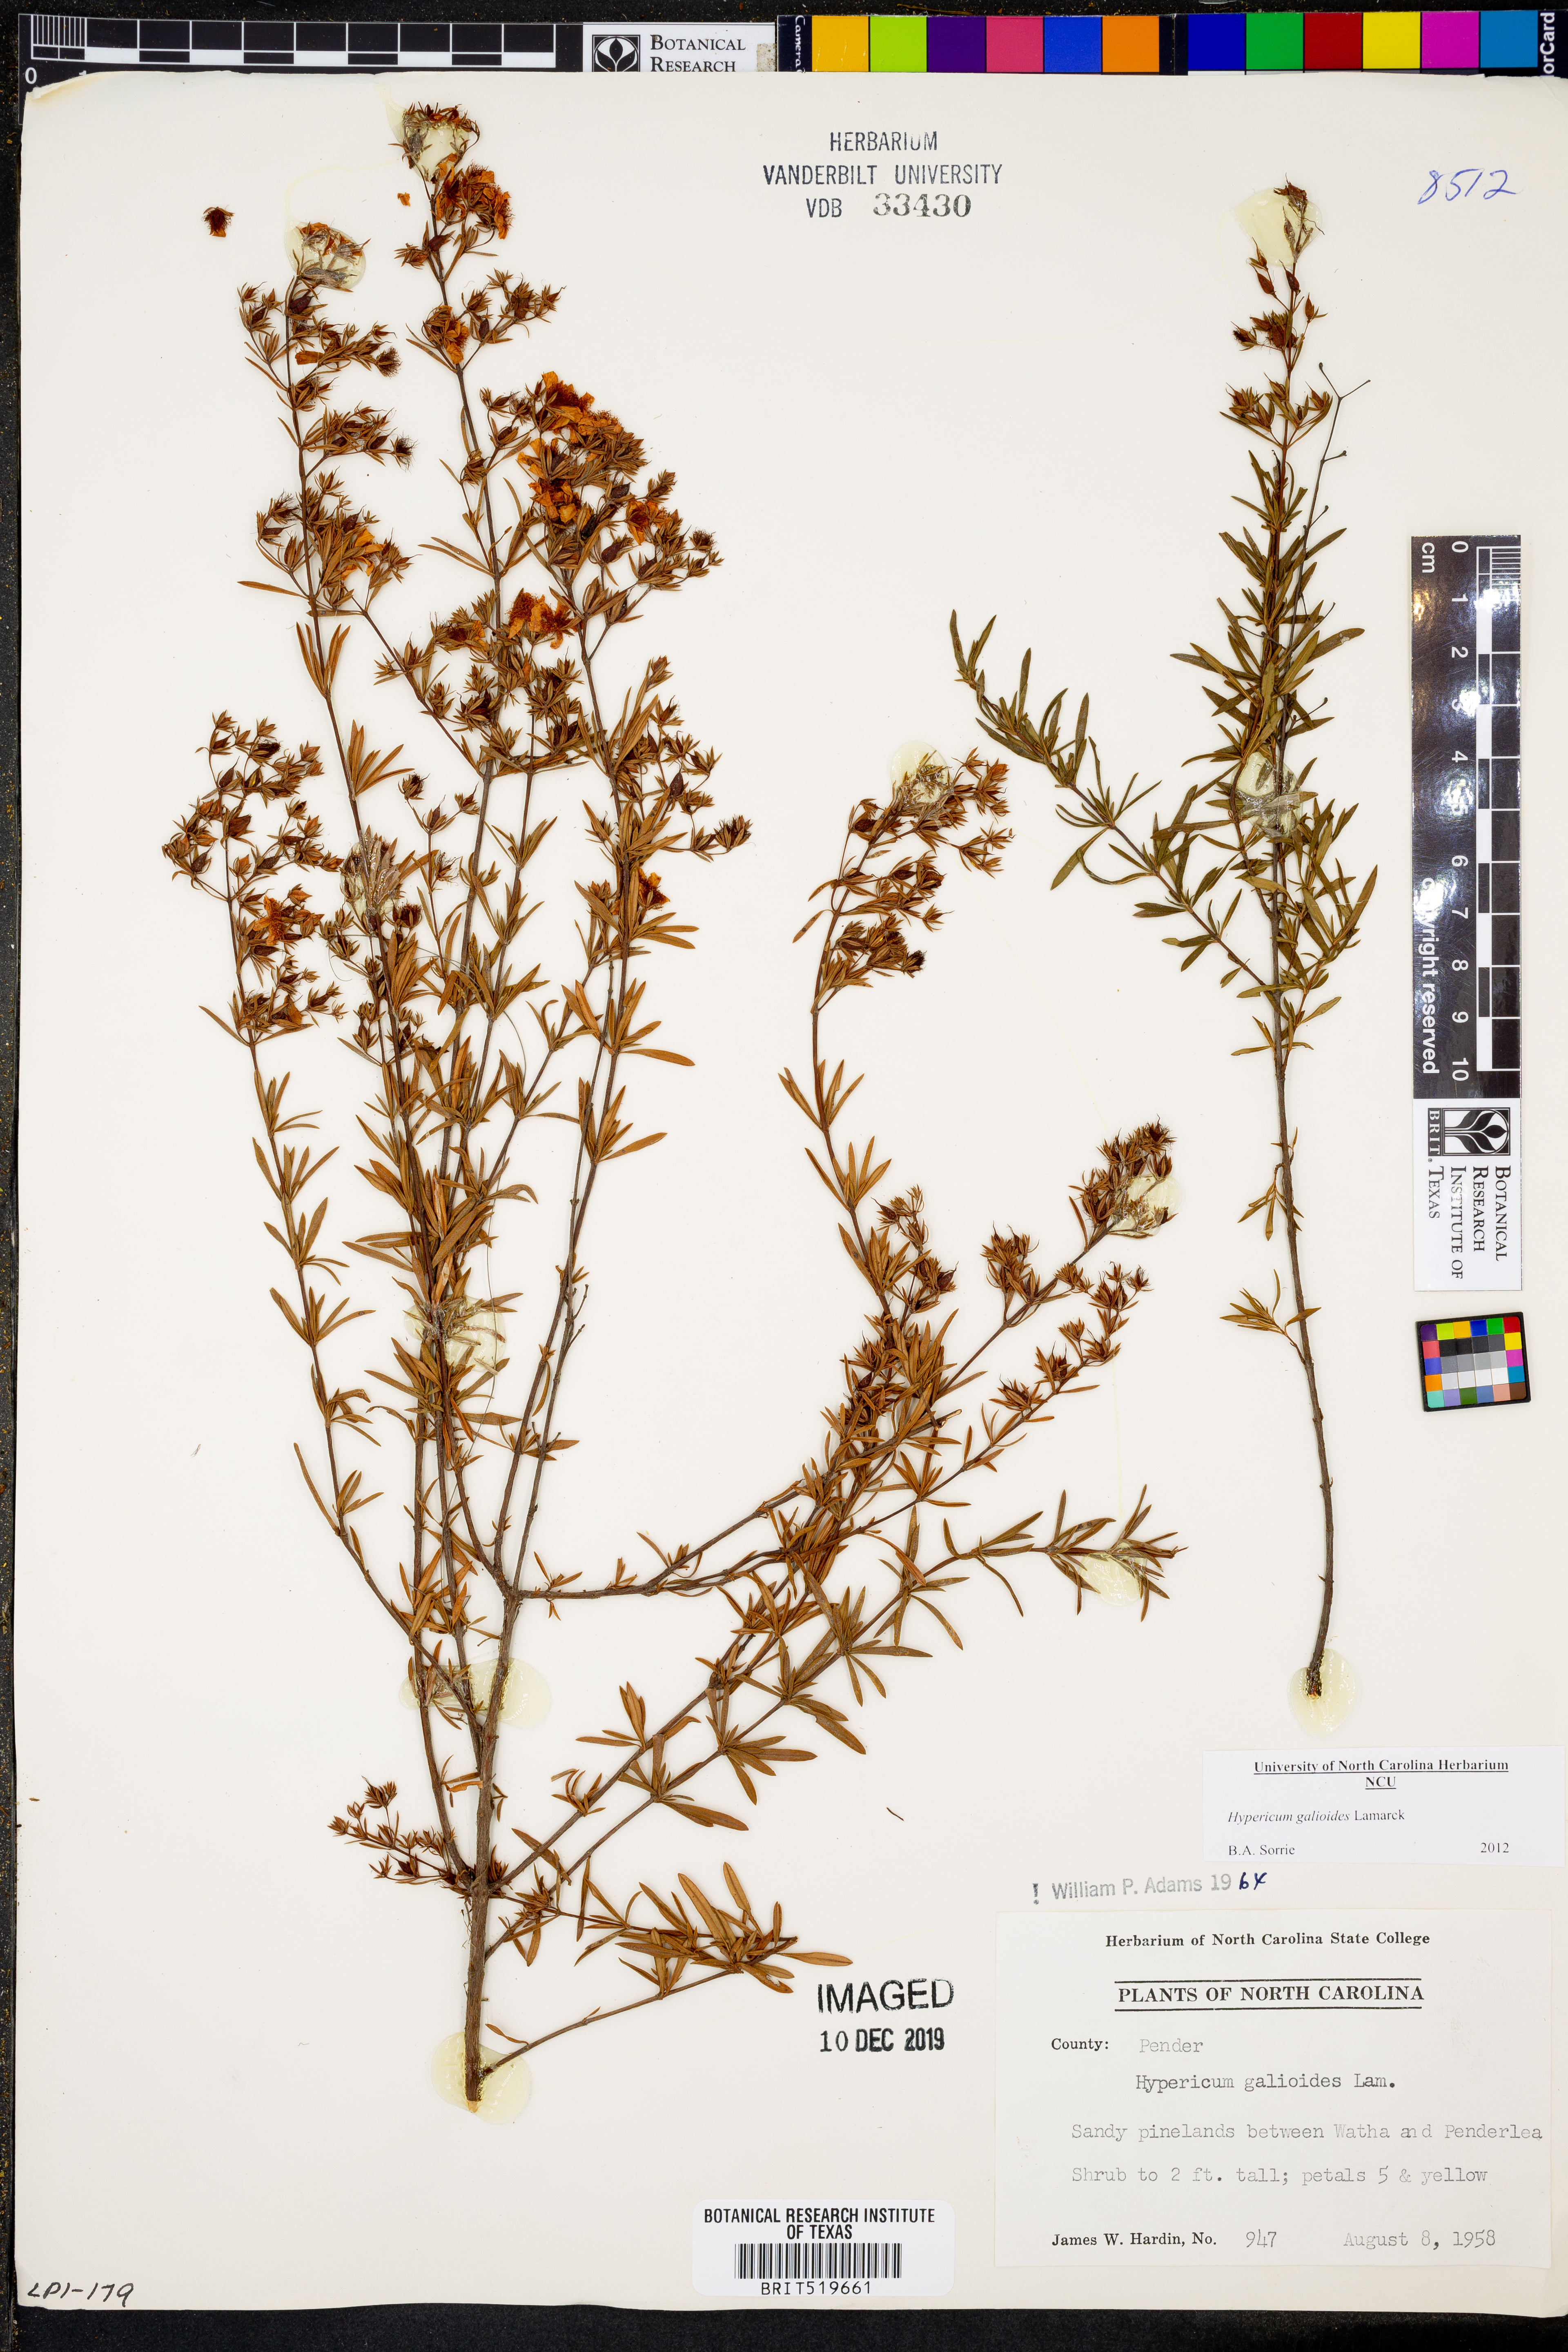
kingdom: Plantae
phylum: Tracheophyta
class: Magnoliopsida
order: Malpighiales
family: Hypericaceae
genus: Hypericum
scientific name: Hypericum galioides
